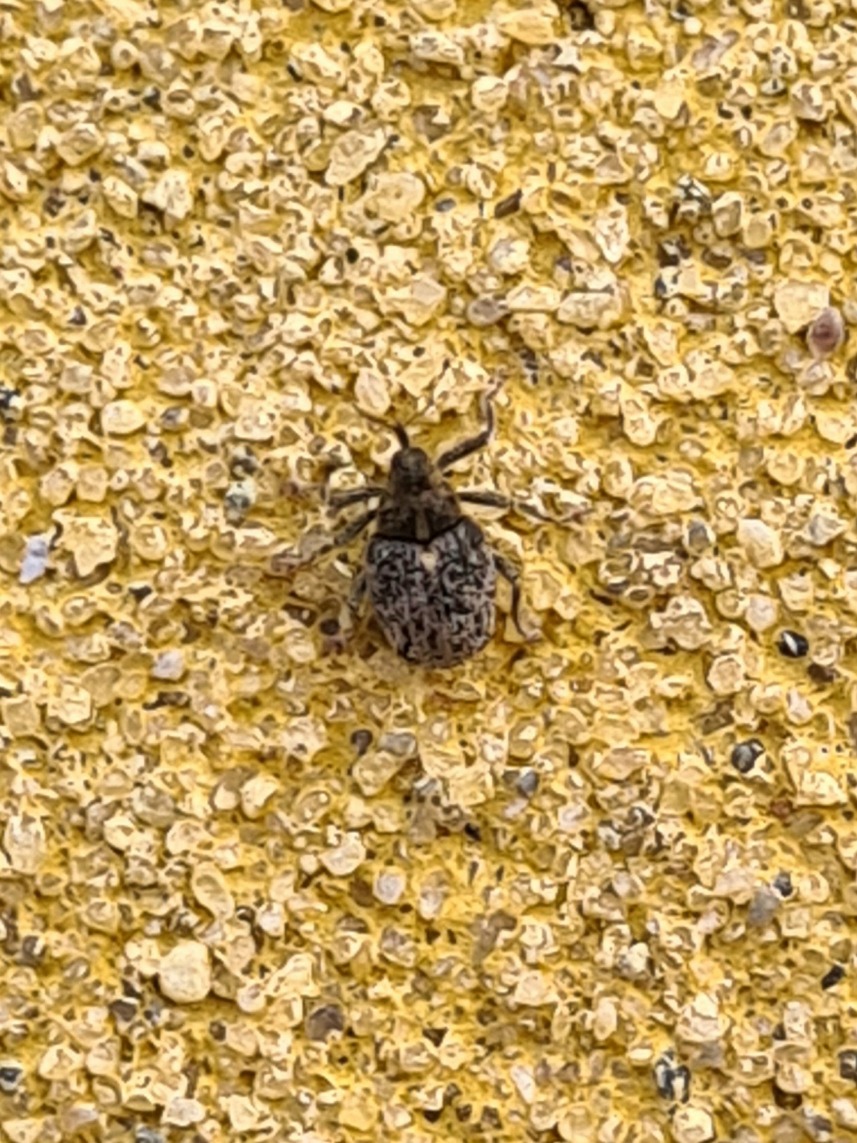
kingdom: Animalia
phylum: Arthropoda
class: Insecta
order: Coleoptera
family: Curculionidae
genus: Ceutorhynchus
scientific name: Ceutorhynchus pallidactylus
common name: Bladribbesnudebille
